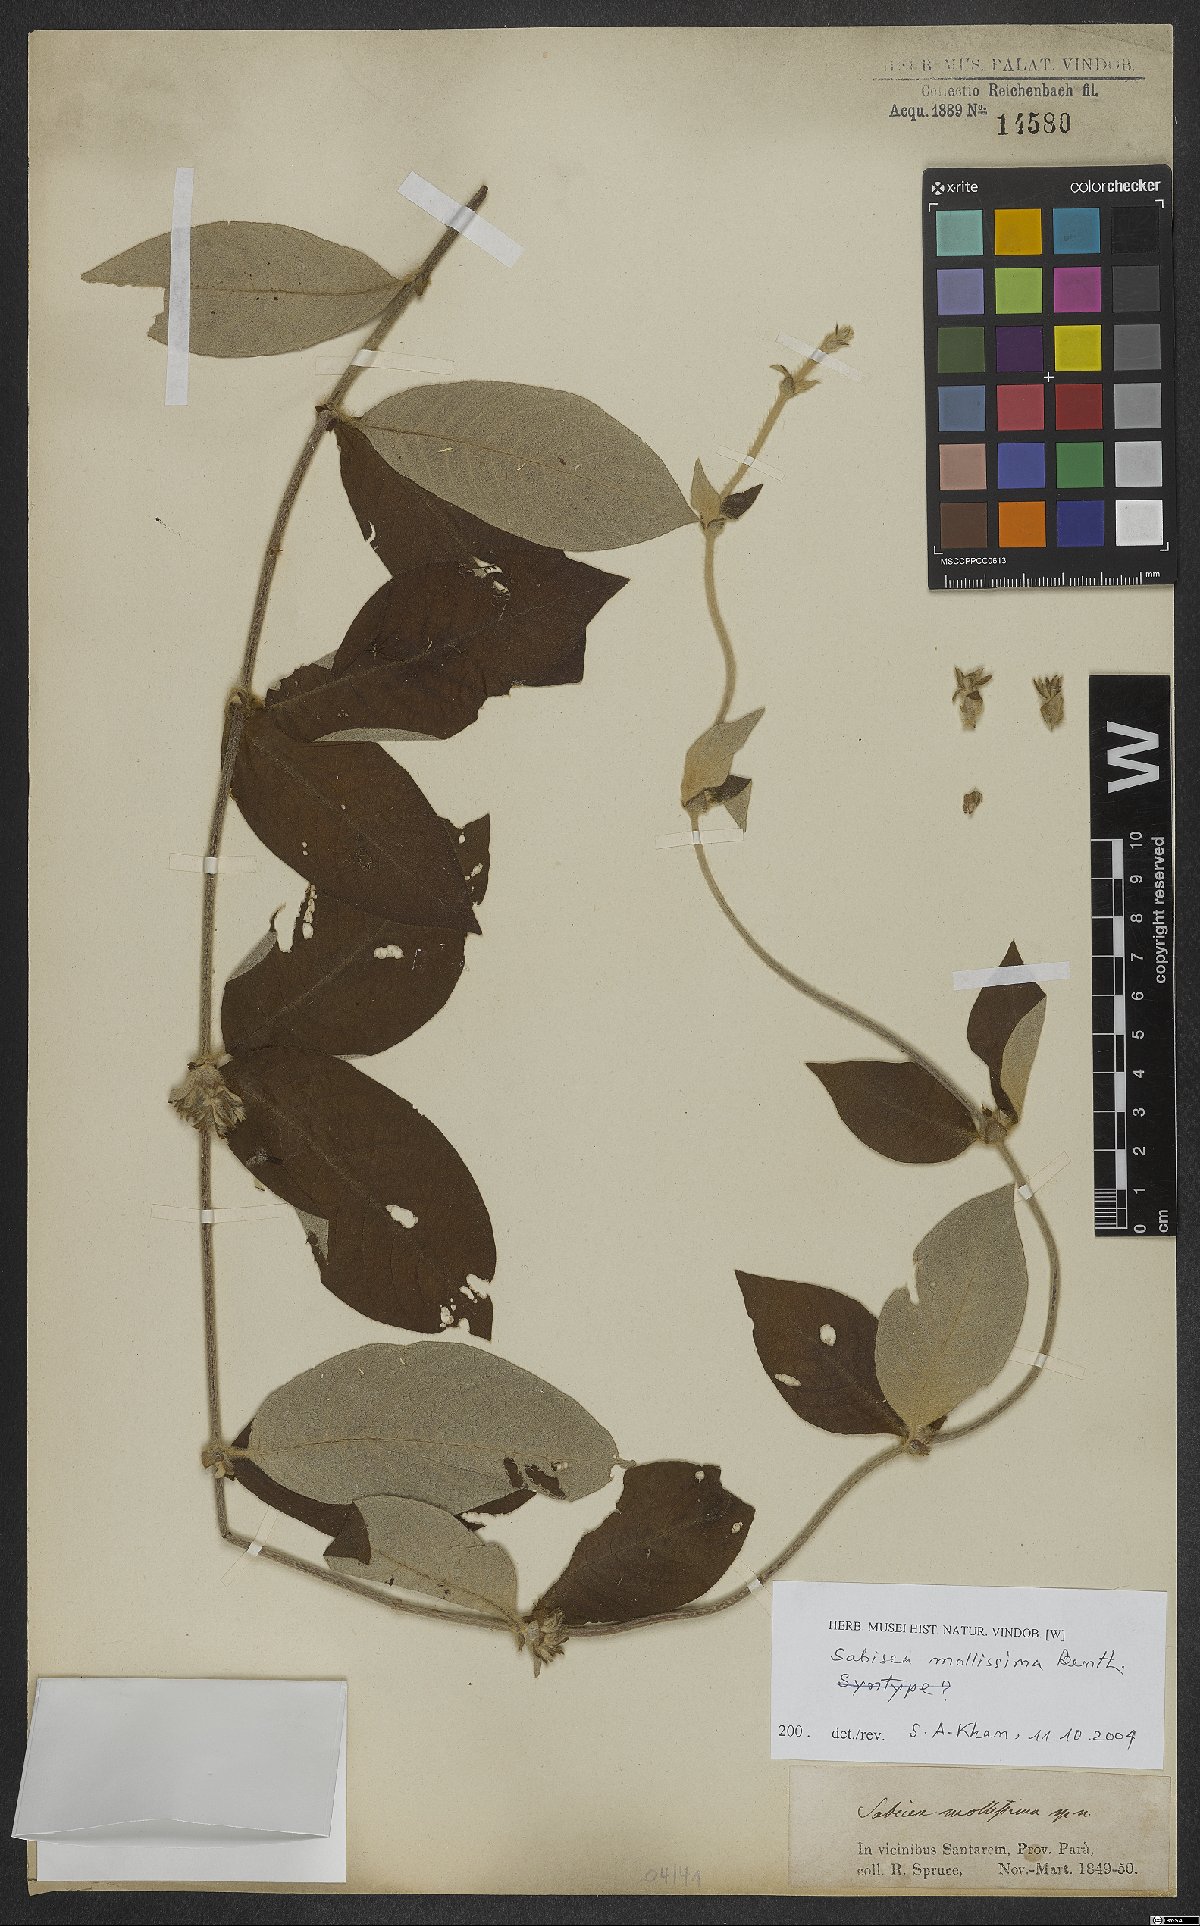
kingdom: Plantae
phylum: Tracheophyta
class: Magnoliopsida
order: Gentianales
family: Rubiaceae
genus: Sabicea
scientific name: Sabicea mollissima
